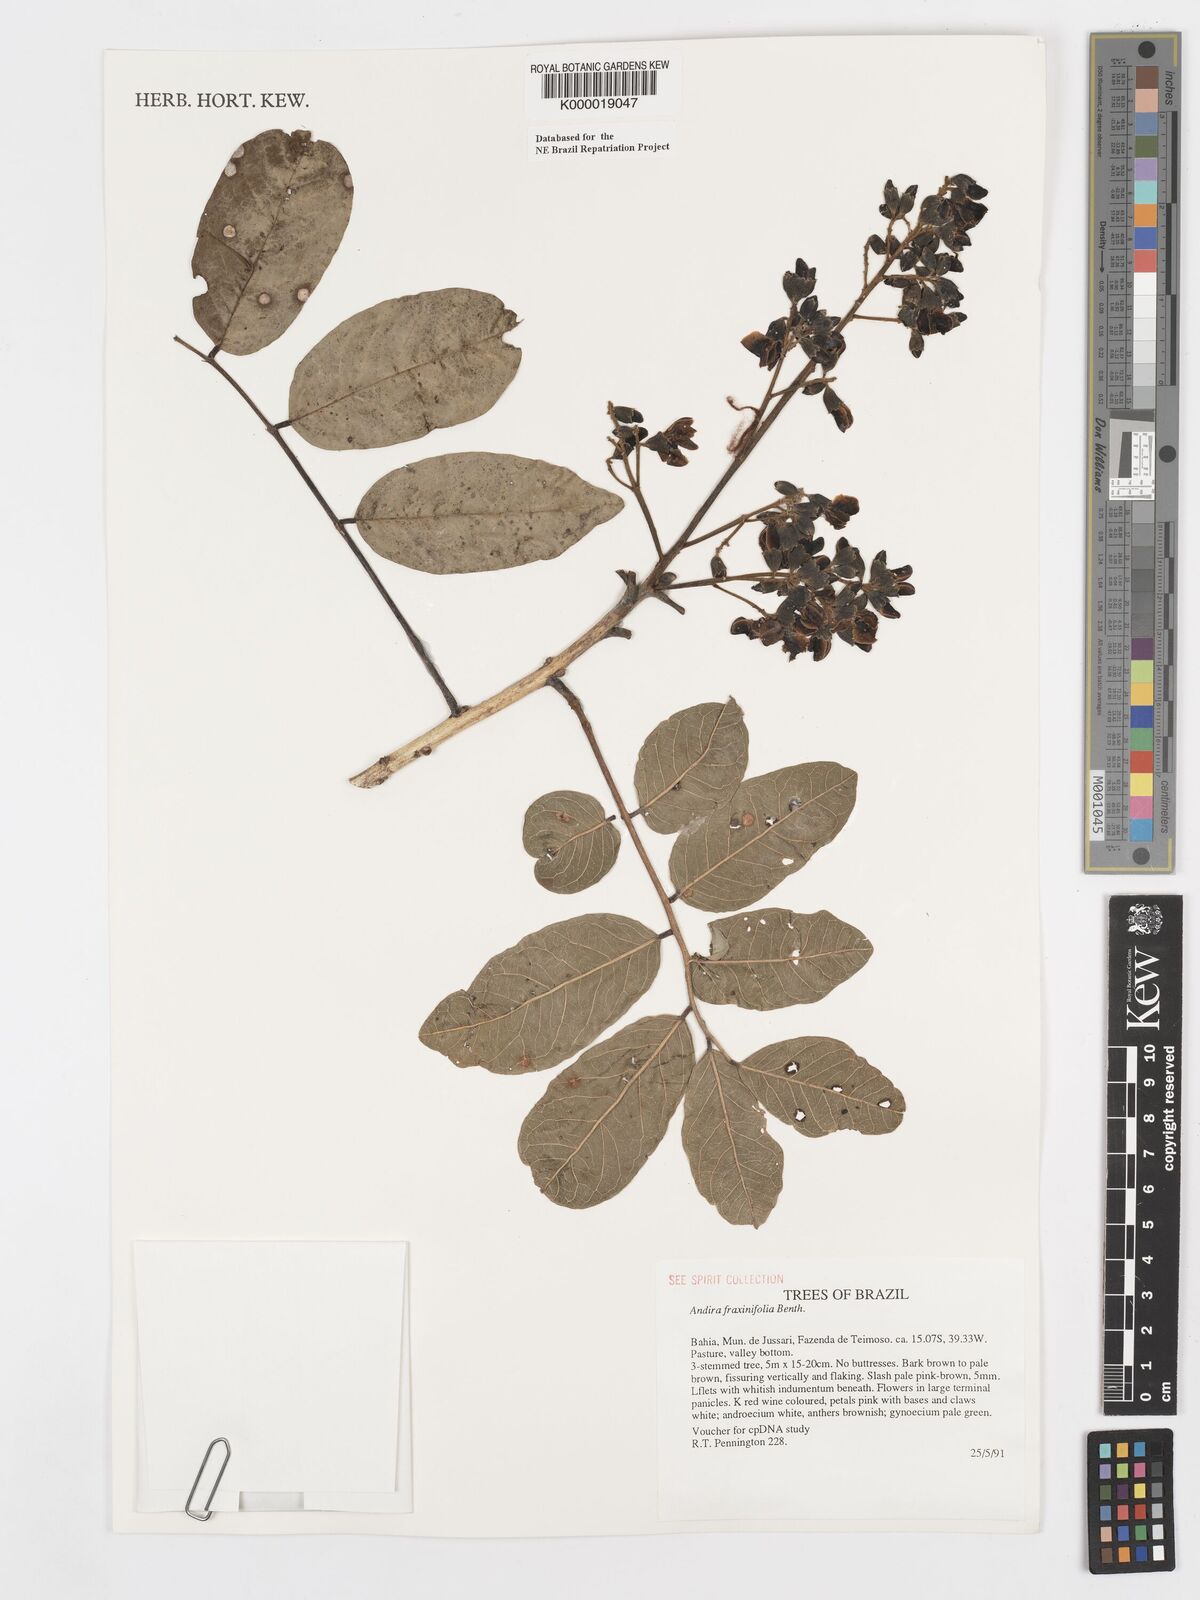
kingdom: Plantae
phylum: Tracheophyta
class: Magnoliopsida
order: Fabales
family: Fabaceae
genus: Andira
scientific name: Andira fraxinifolia
